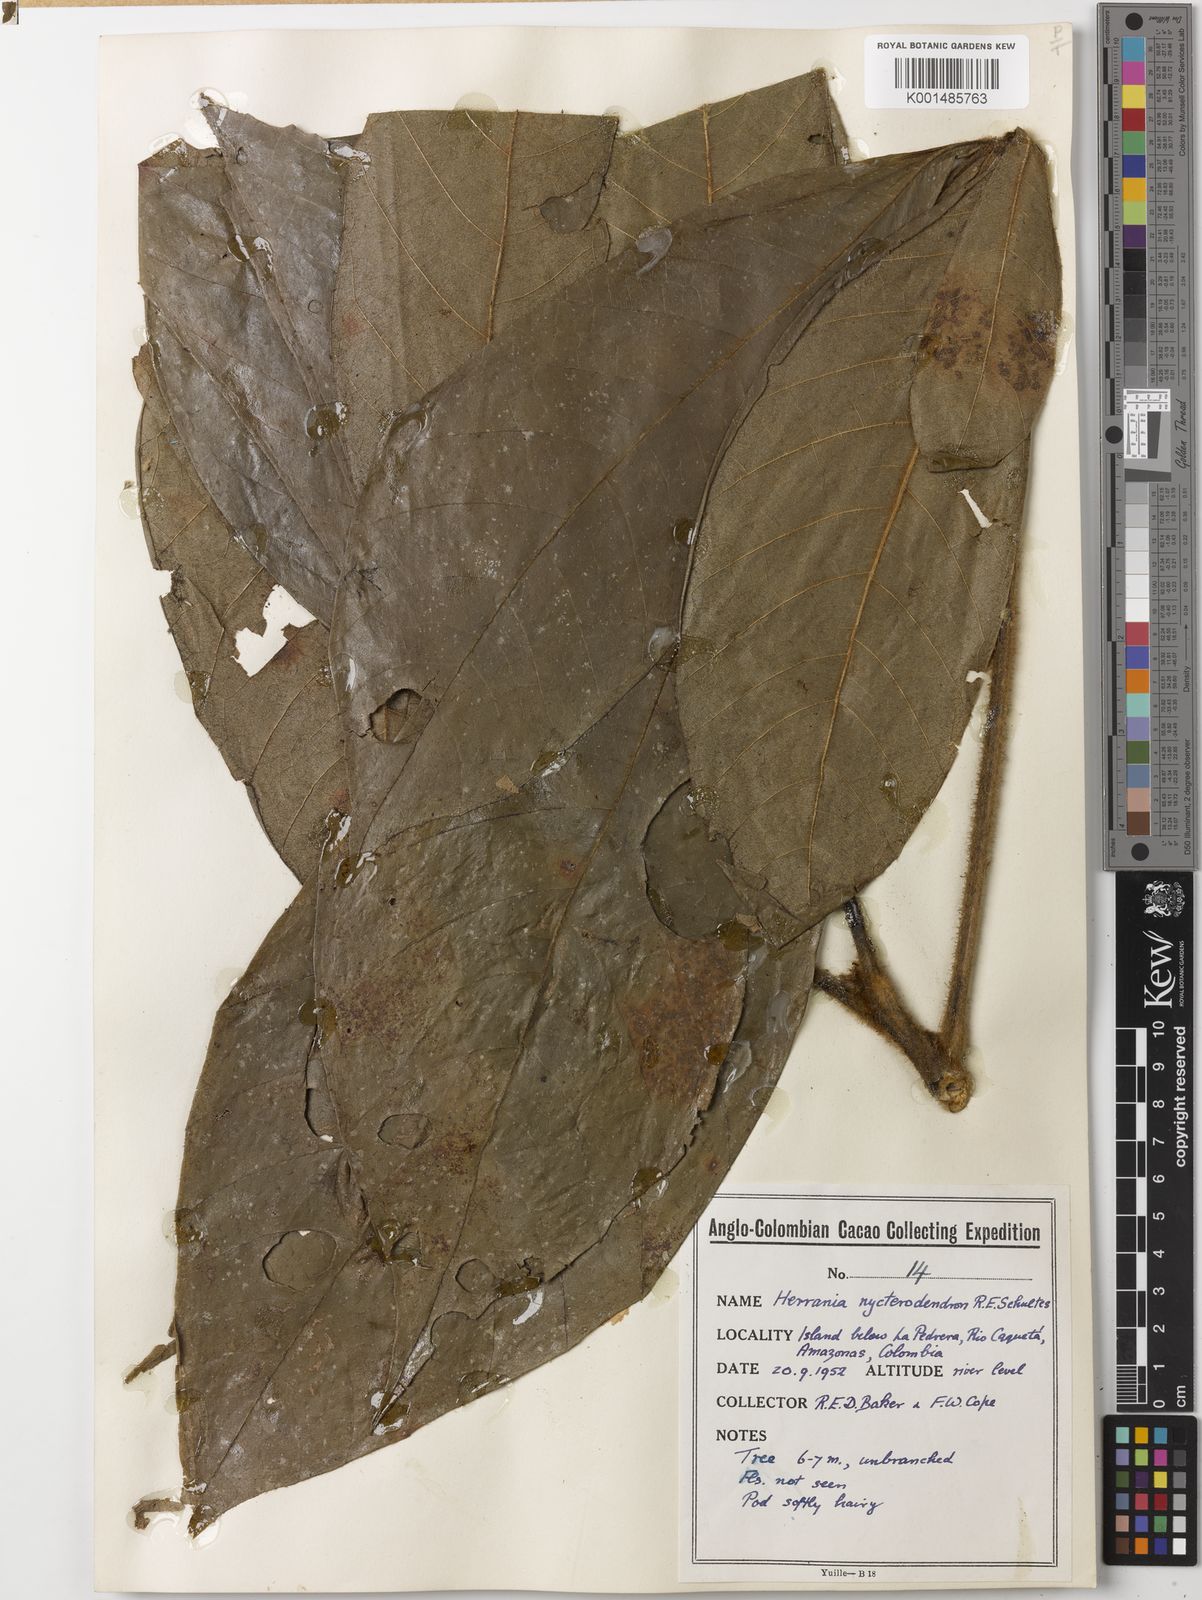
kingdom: Plantae
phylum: Tracheophyta
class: Magnoliopsida
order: Malvales
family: Malvaceae
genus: Herrania
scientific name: Herrania nycterodendron
